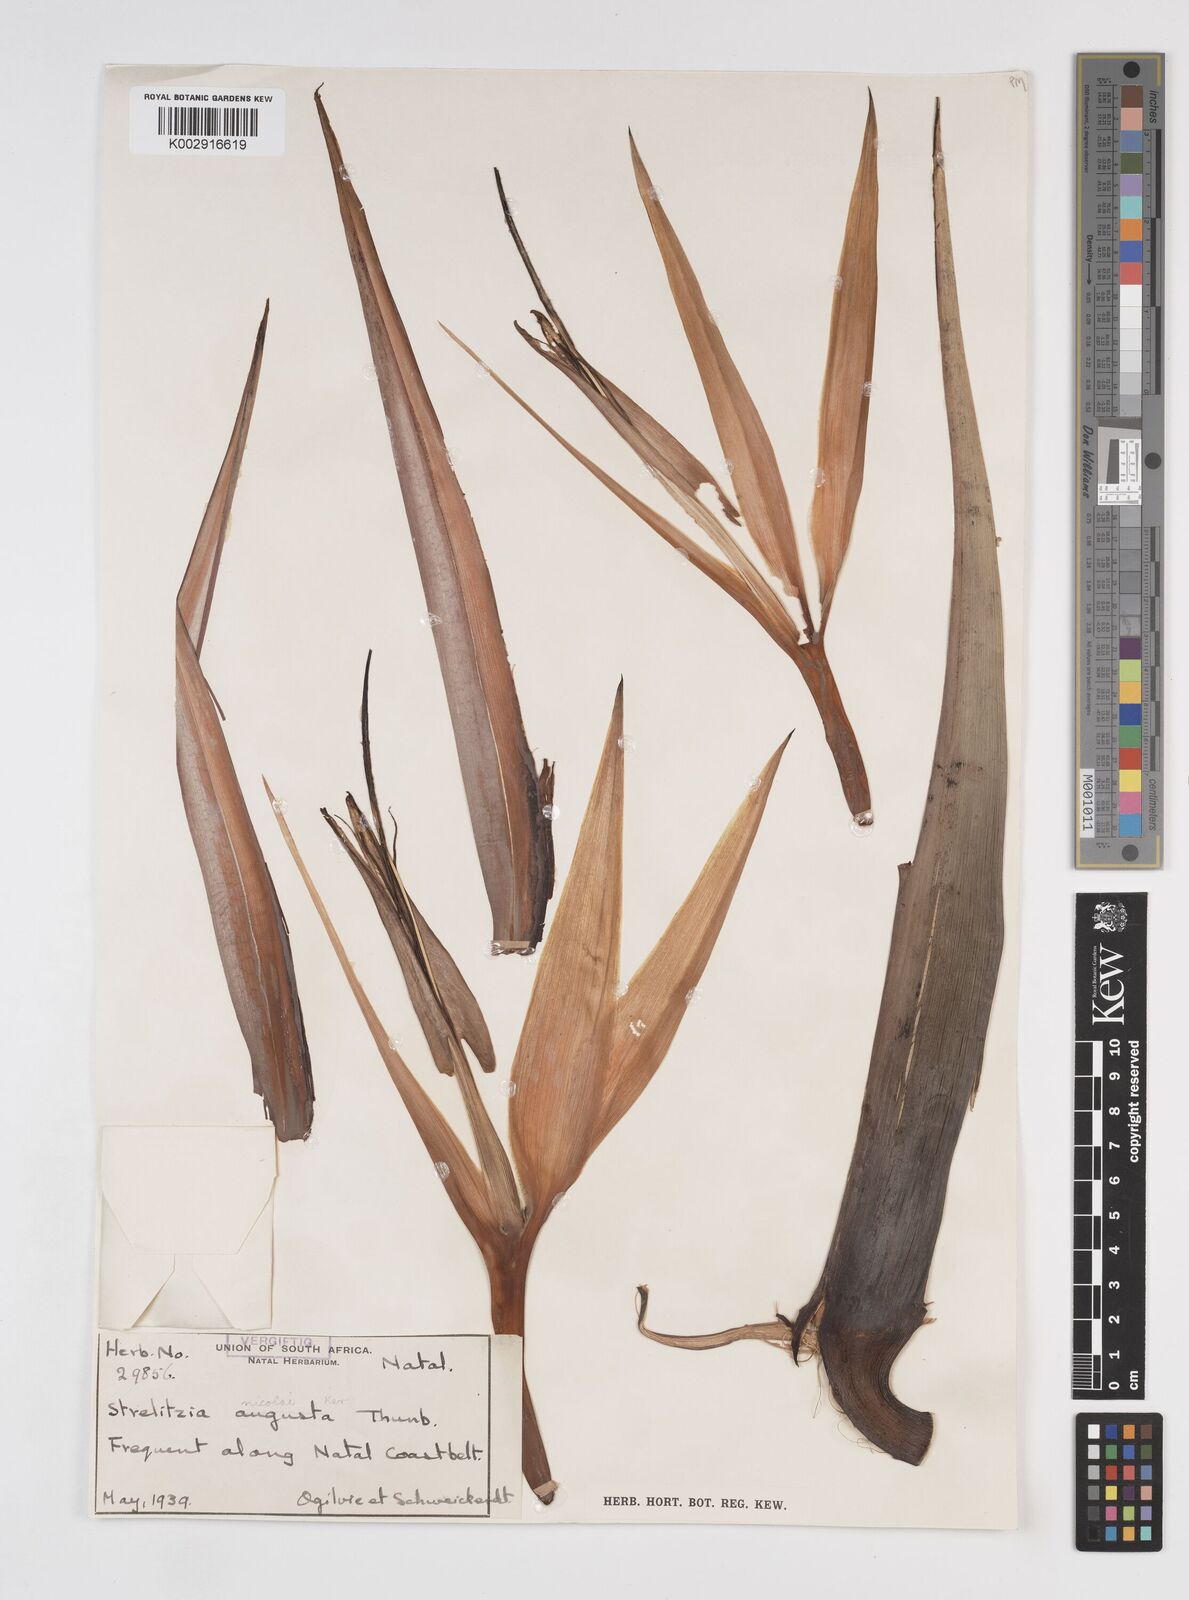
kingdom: Plantae
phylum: Tracheophyta
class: Liliopsida
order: Zingiberales
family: Strelitziaceae
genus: Strelitzia
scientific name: Strelitzia nicolai
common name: Bird-of-paradise tree
